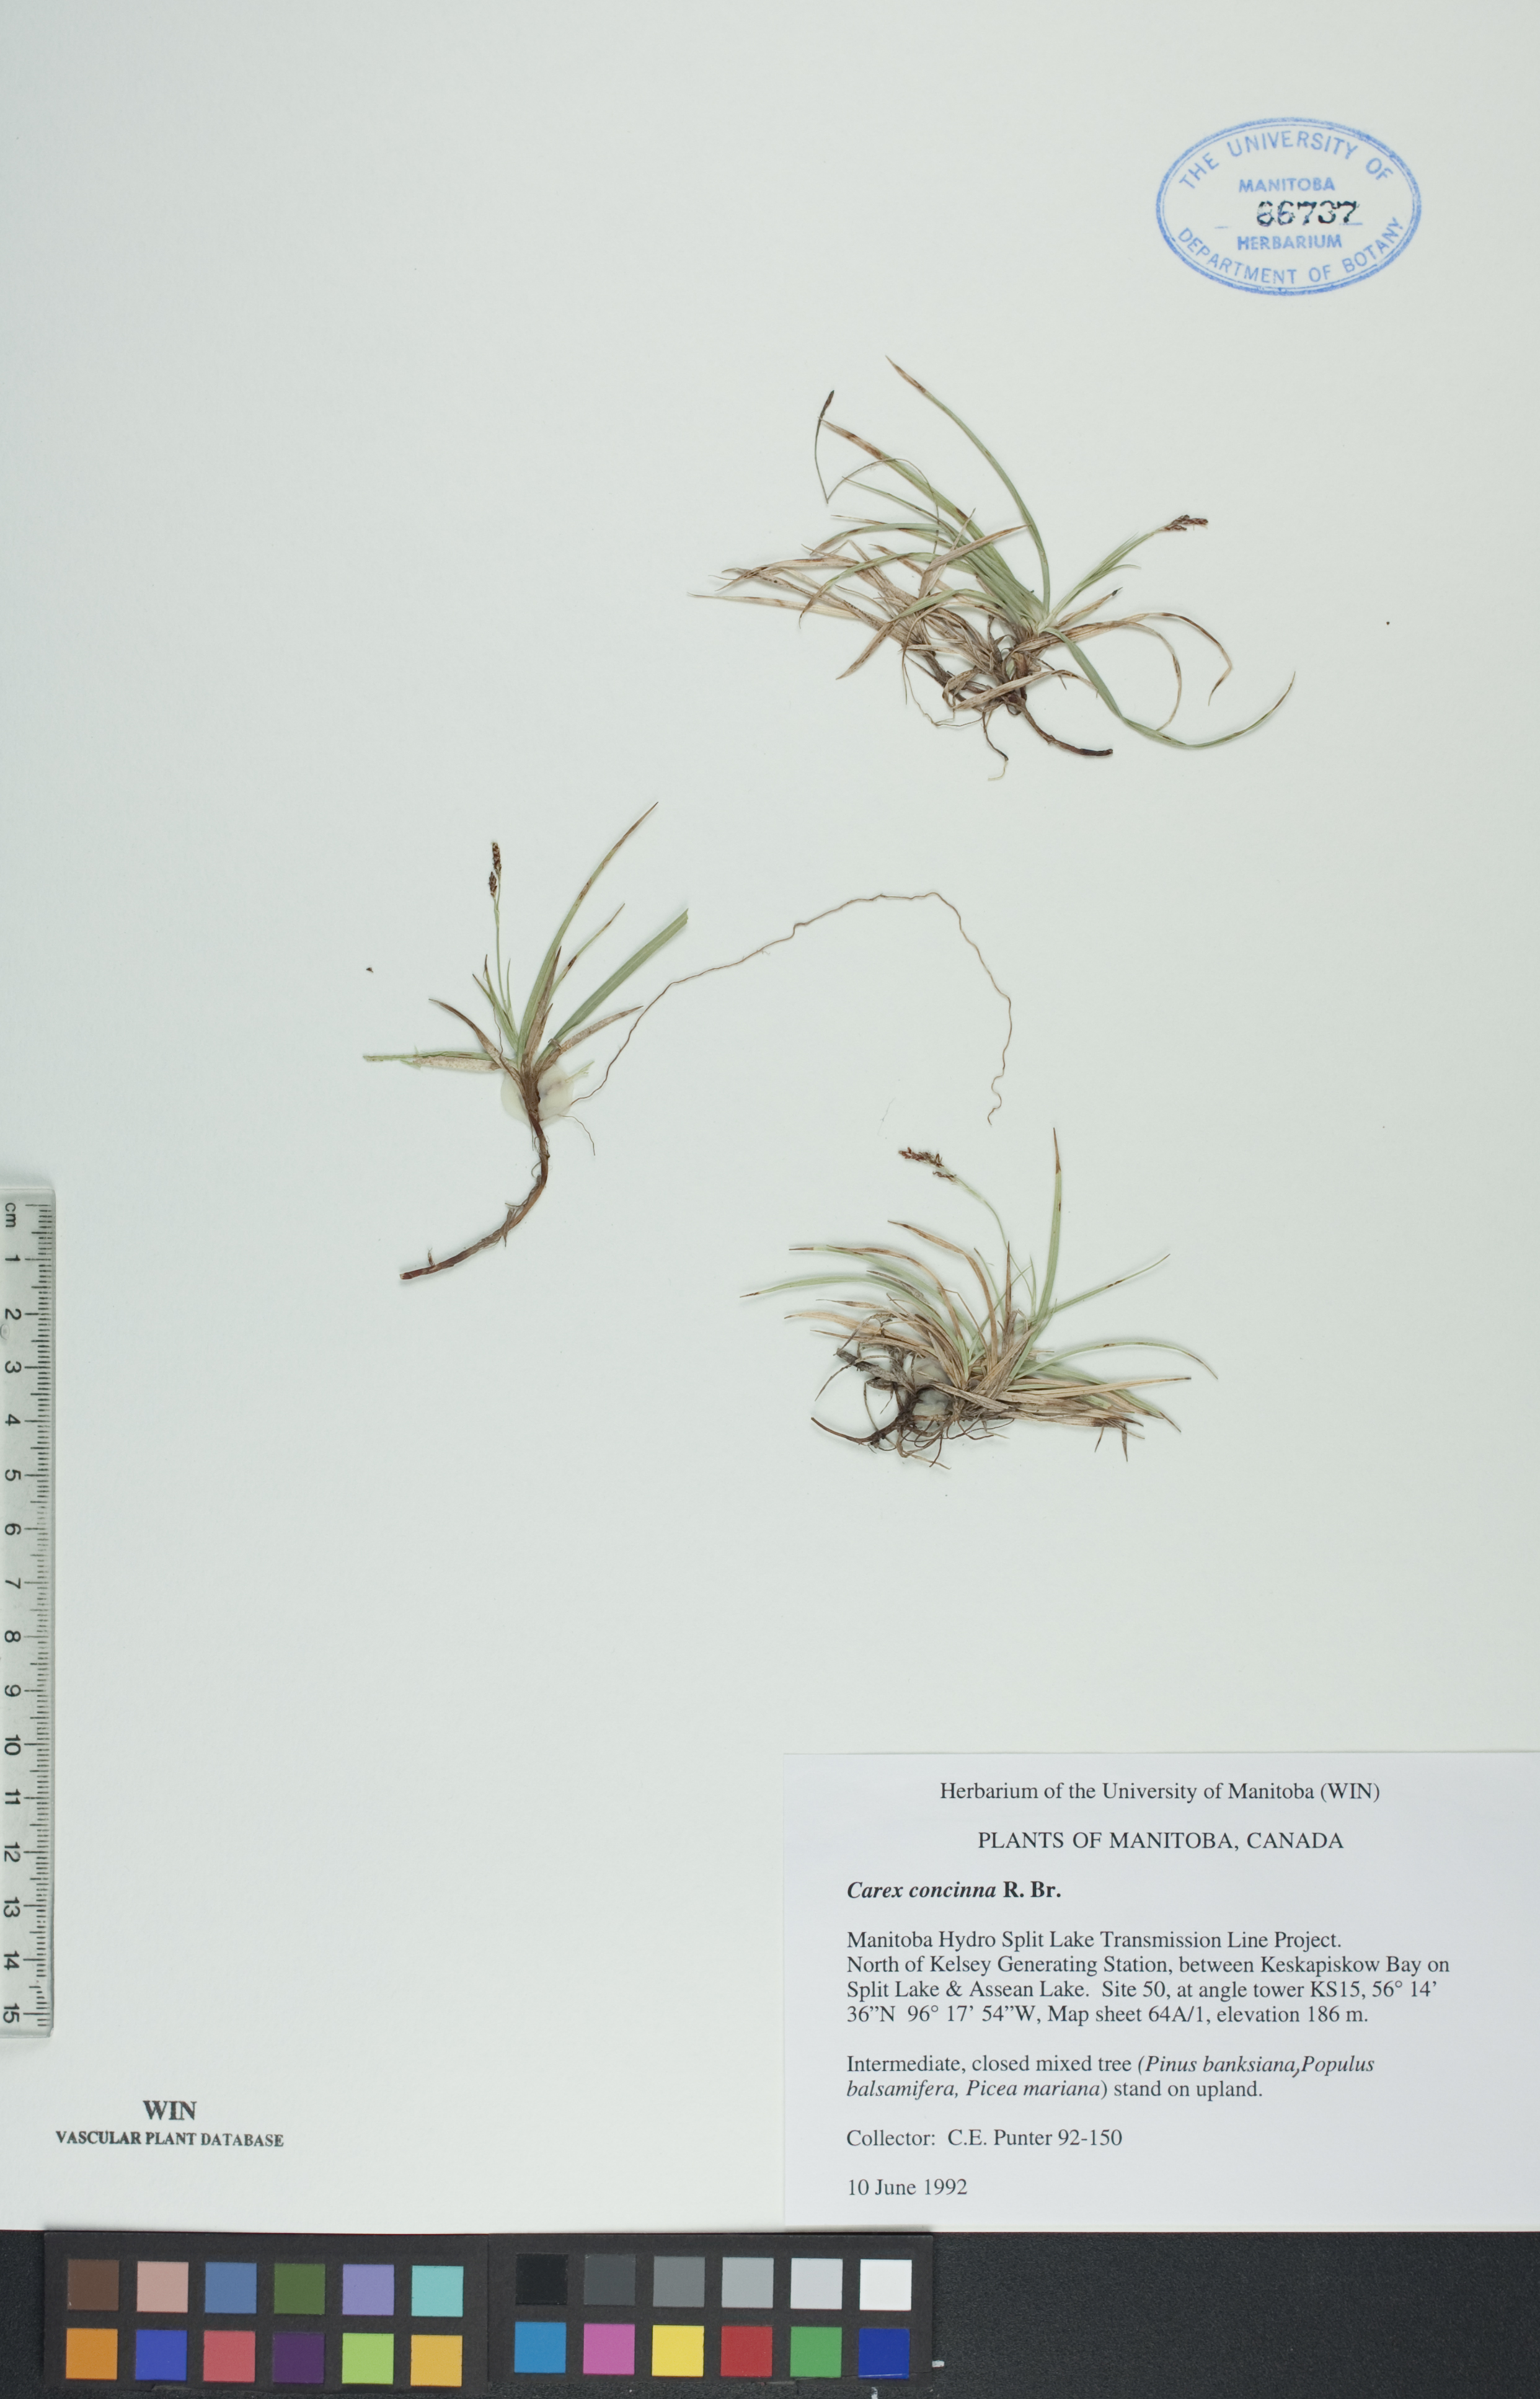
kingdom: Plantae
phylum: Tracheophyta
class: Liliopsida
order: Poales
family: Cyperaceae
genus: Carex
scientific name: Carex concinna
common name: Beautiful sedge
